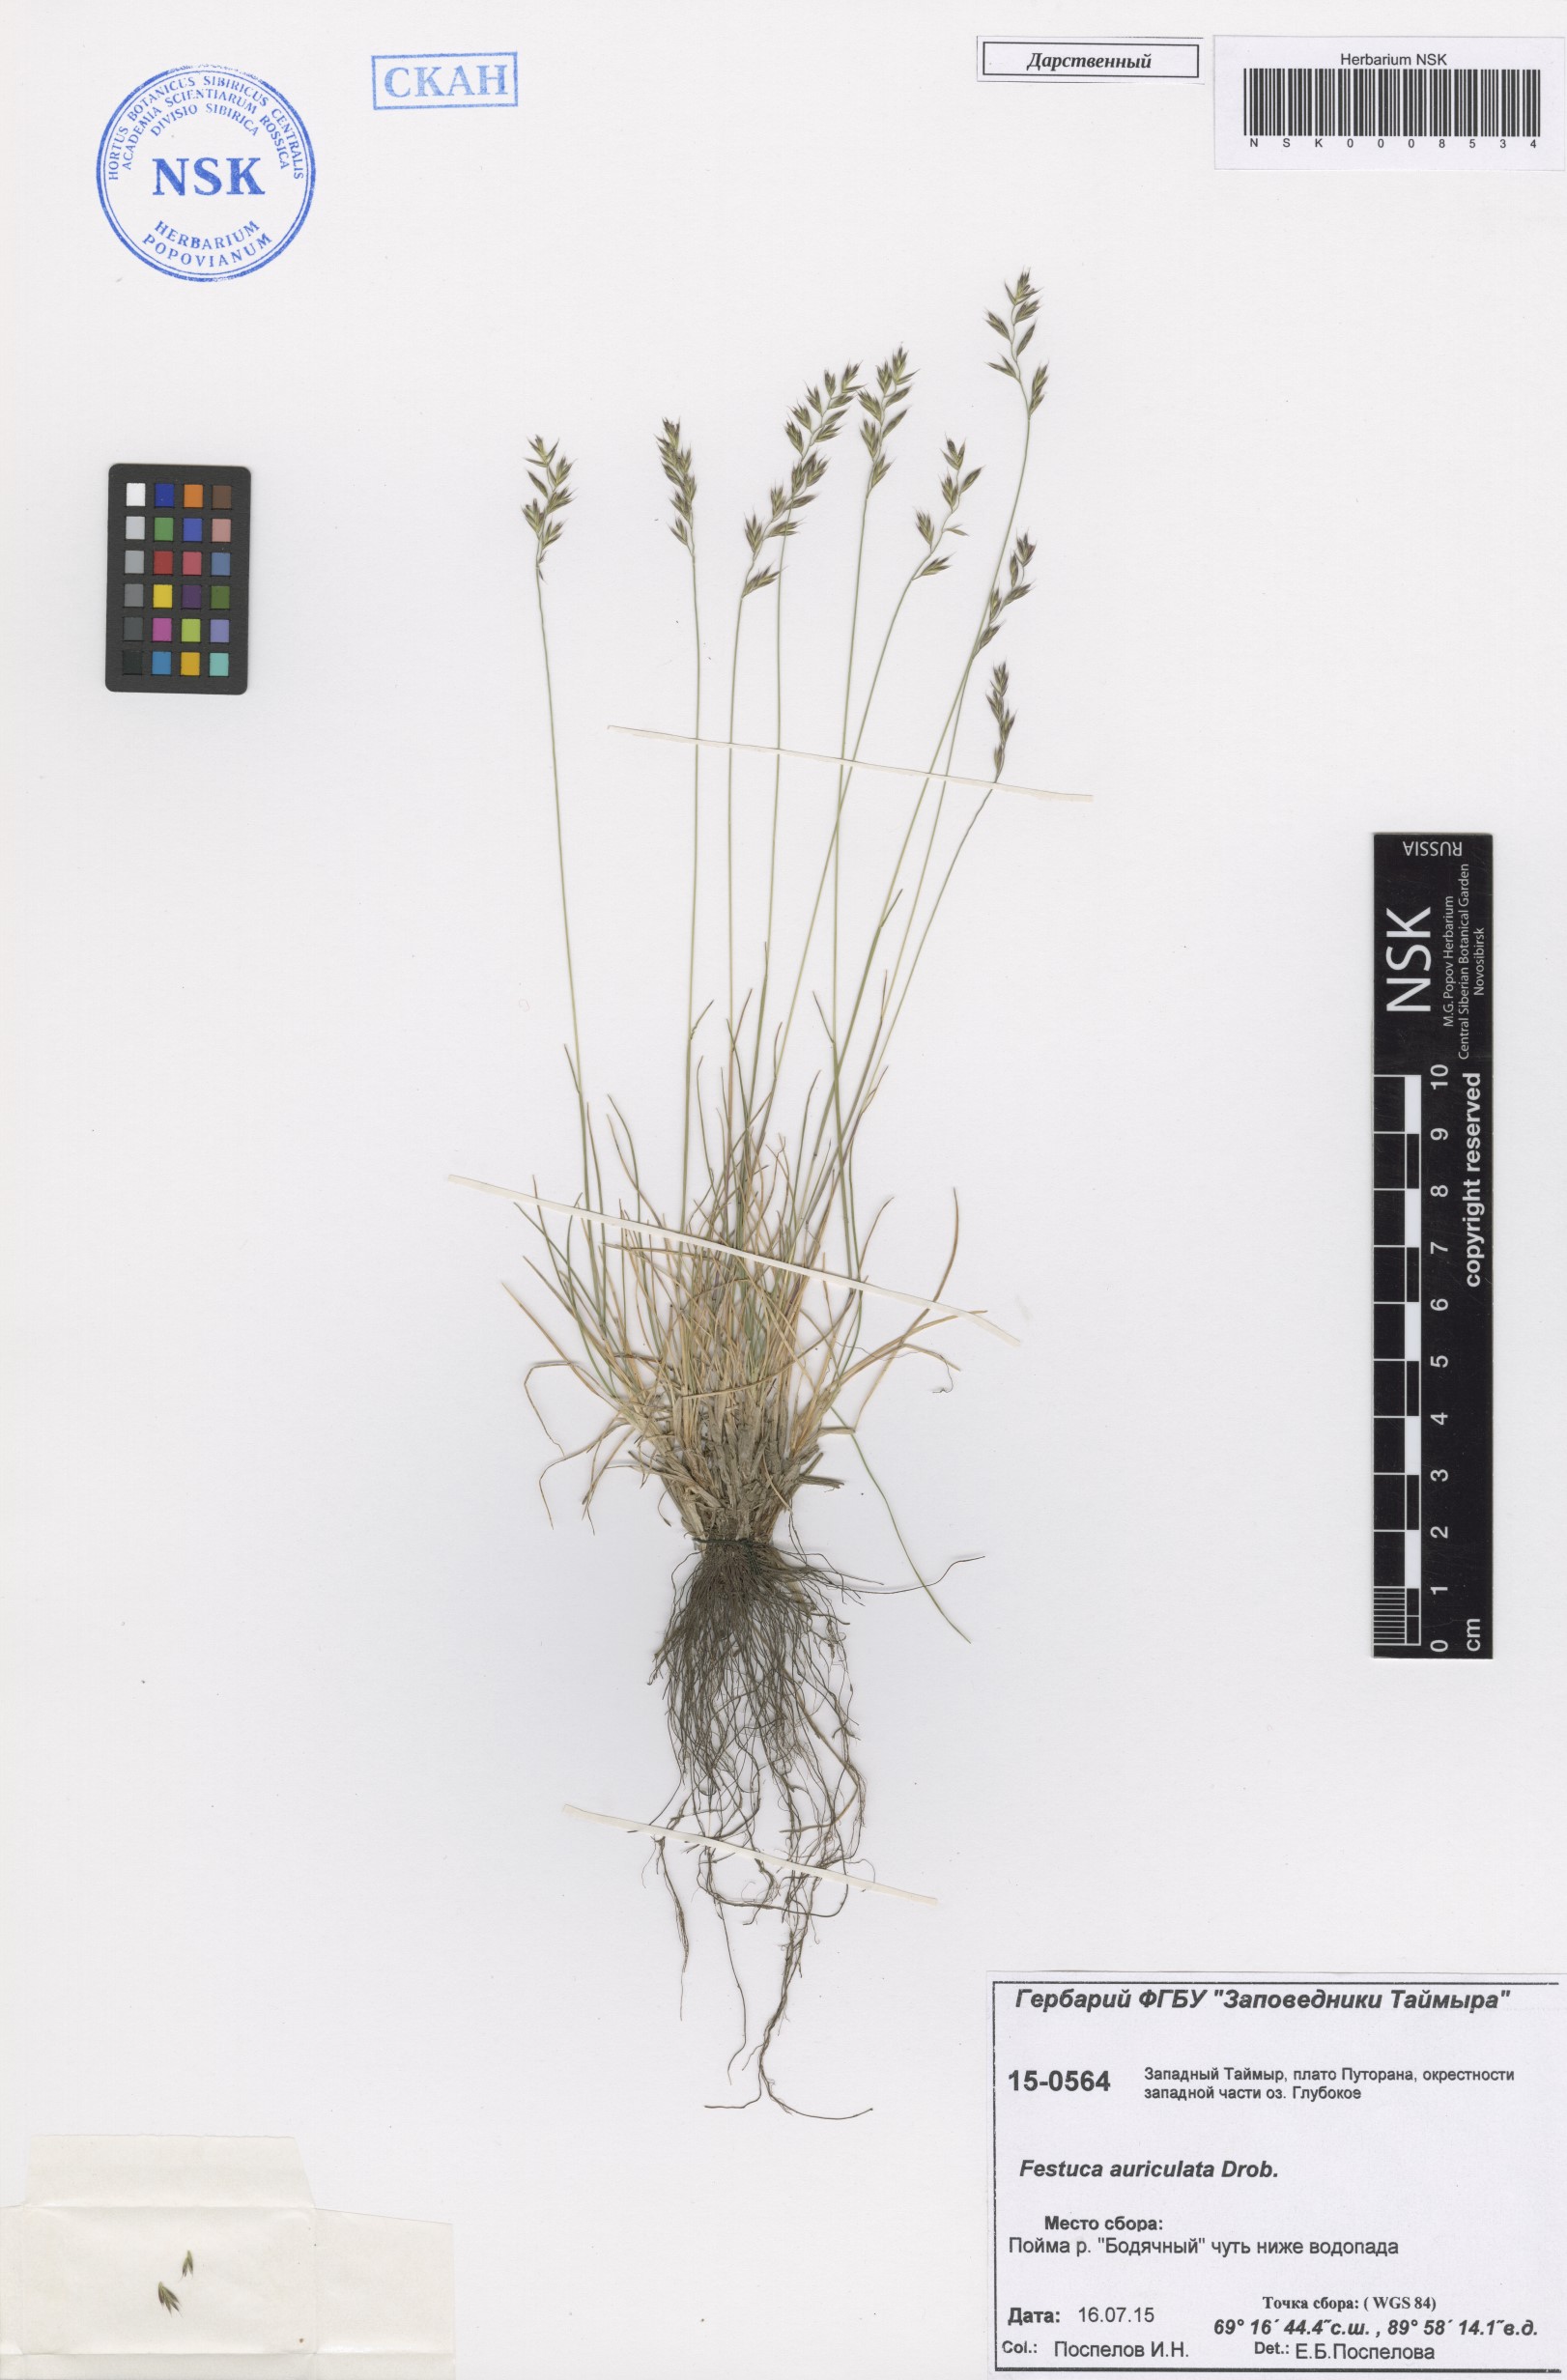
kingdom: Plantae
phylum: Tracheophyta
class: Liliopsida
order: Poales
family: Poaceae
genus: Festuca
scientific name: Festuca auriculata
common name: Eared fescue
